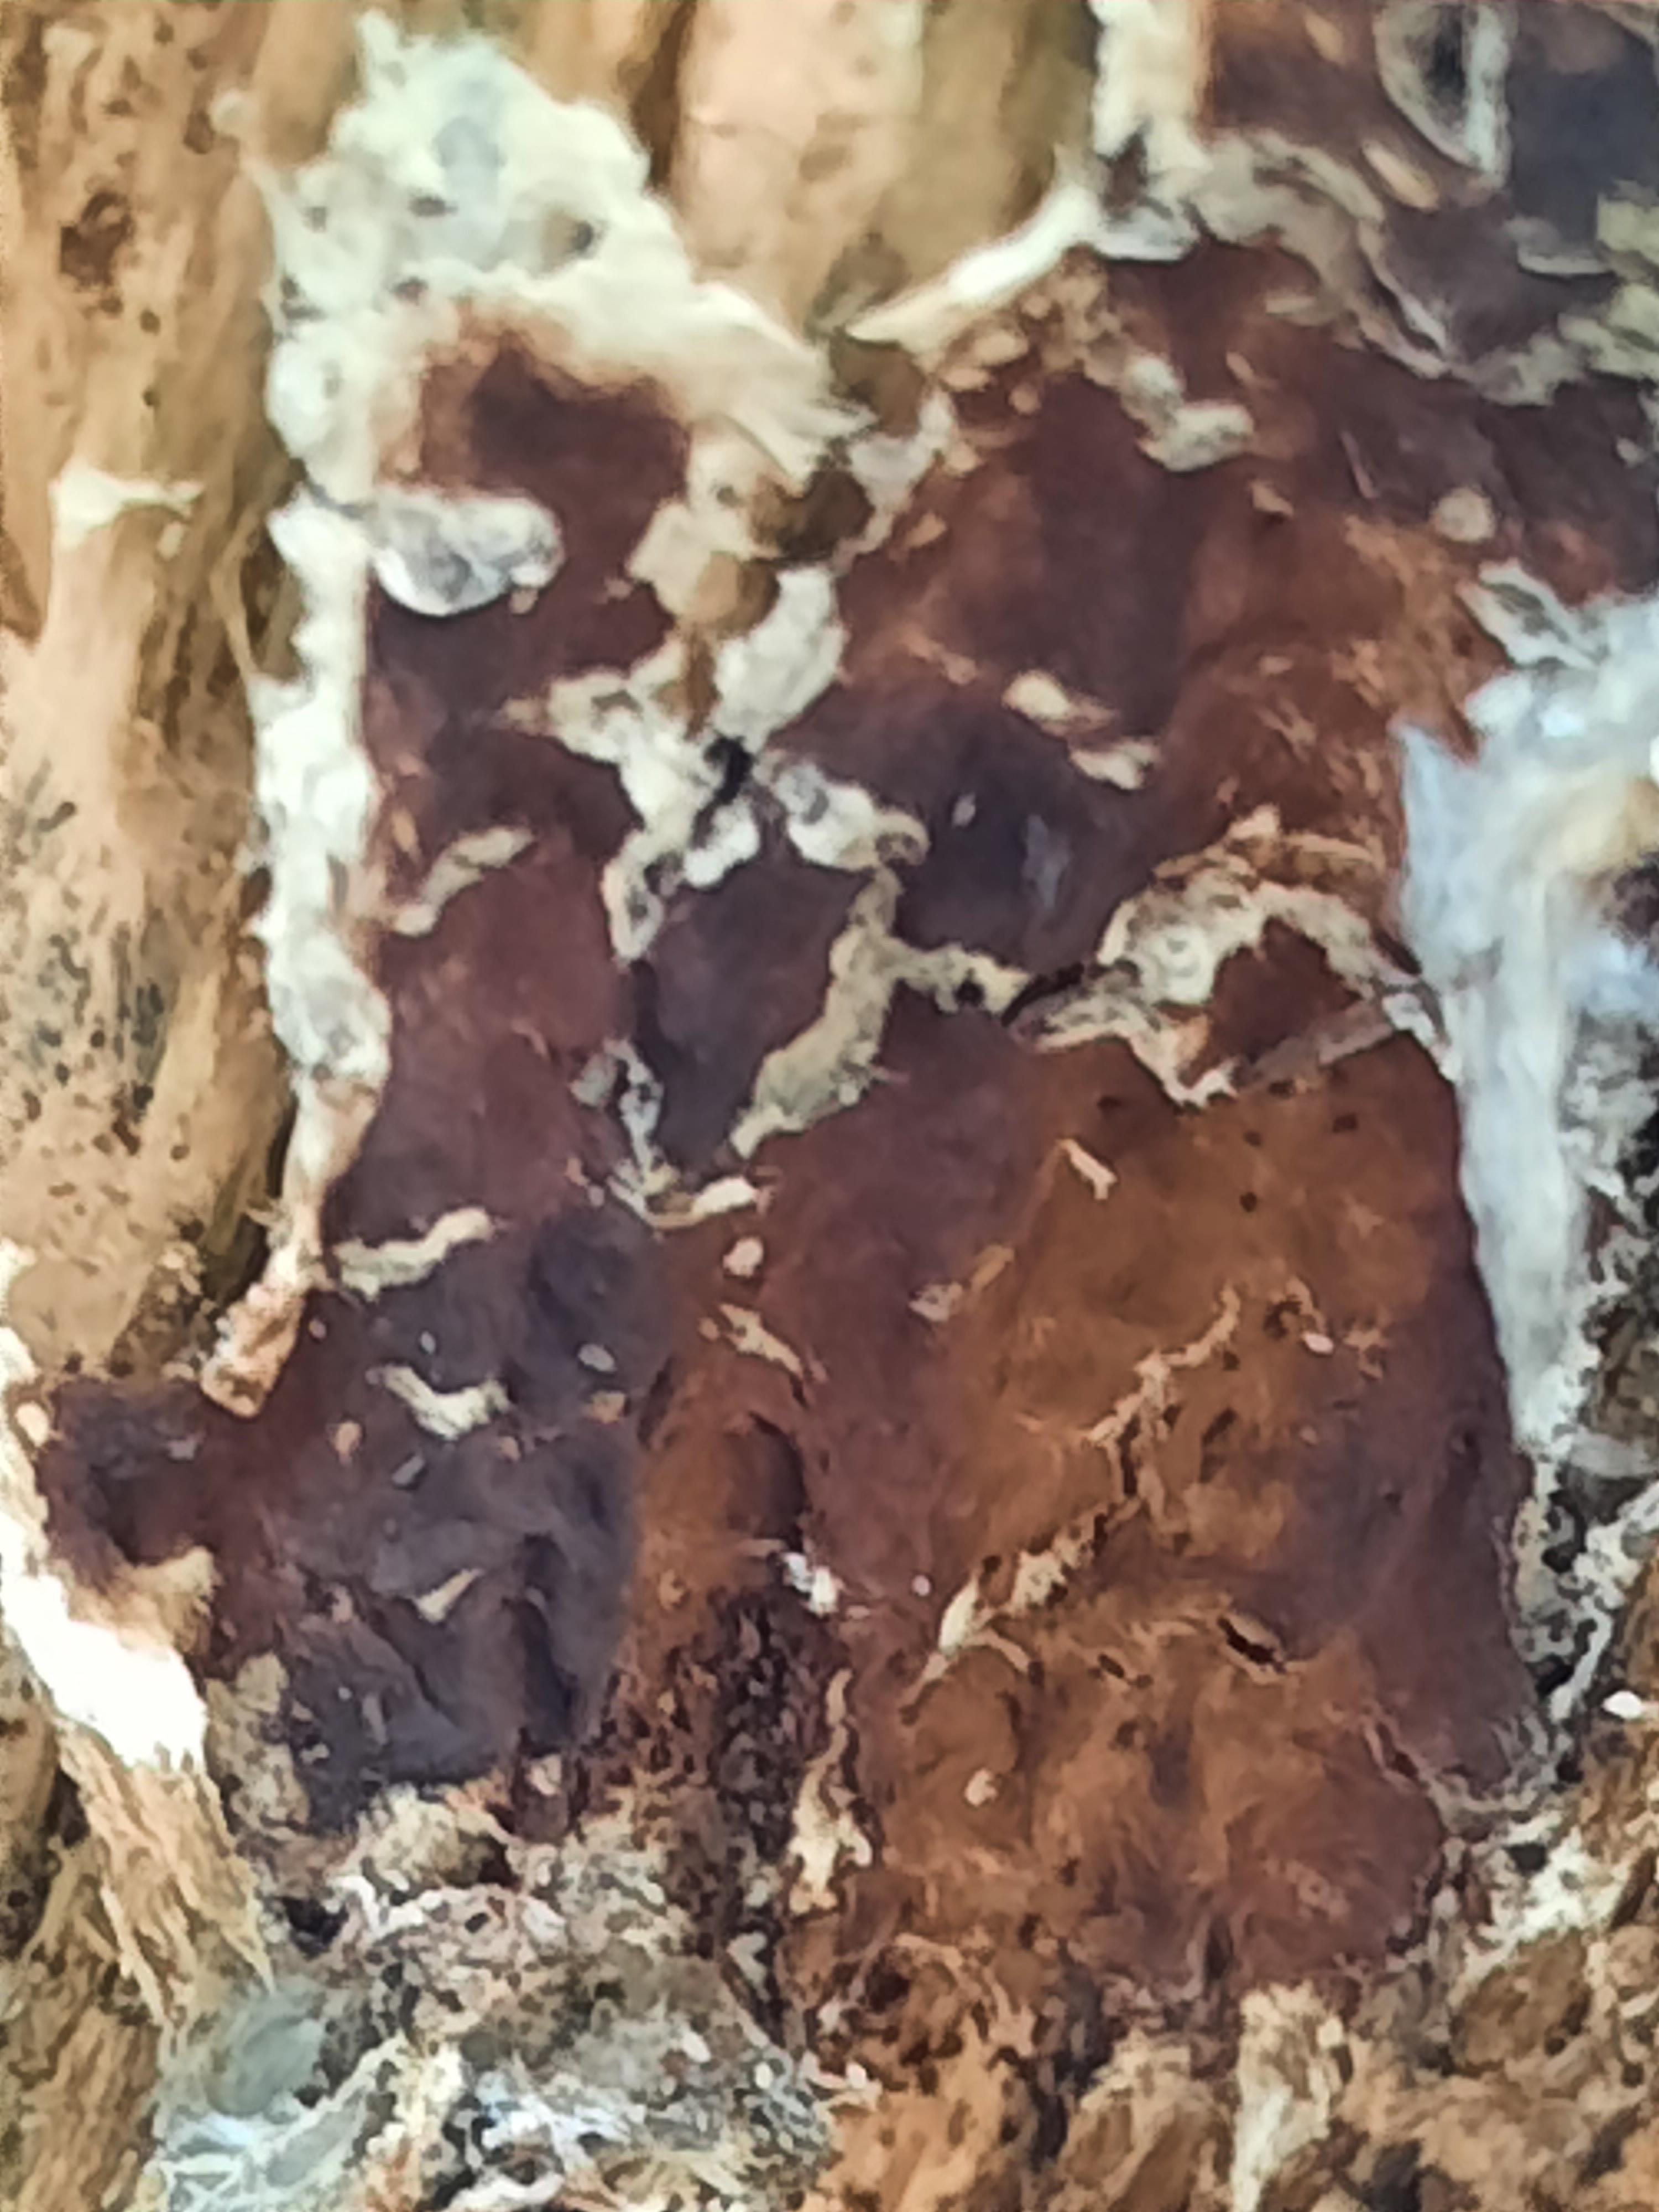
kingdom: Fungi
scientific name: Fungi
